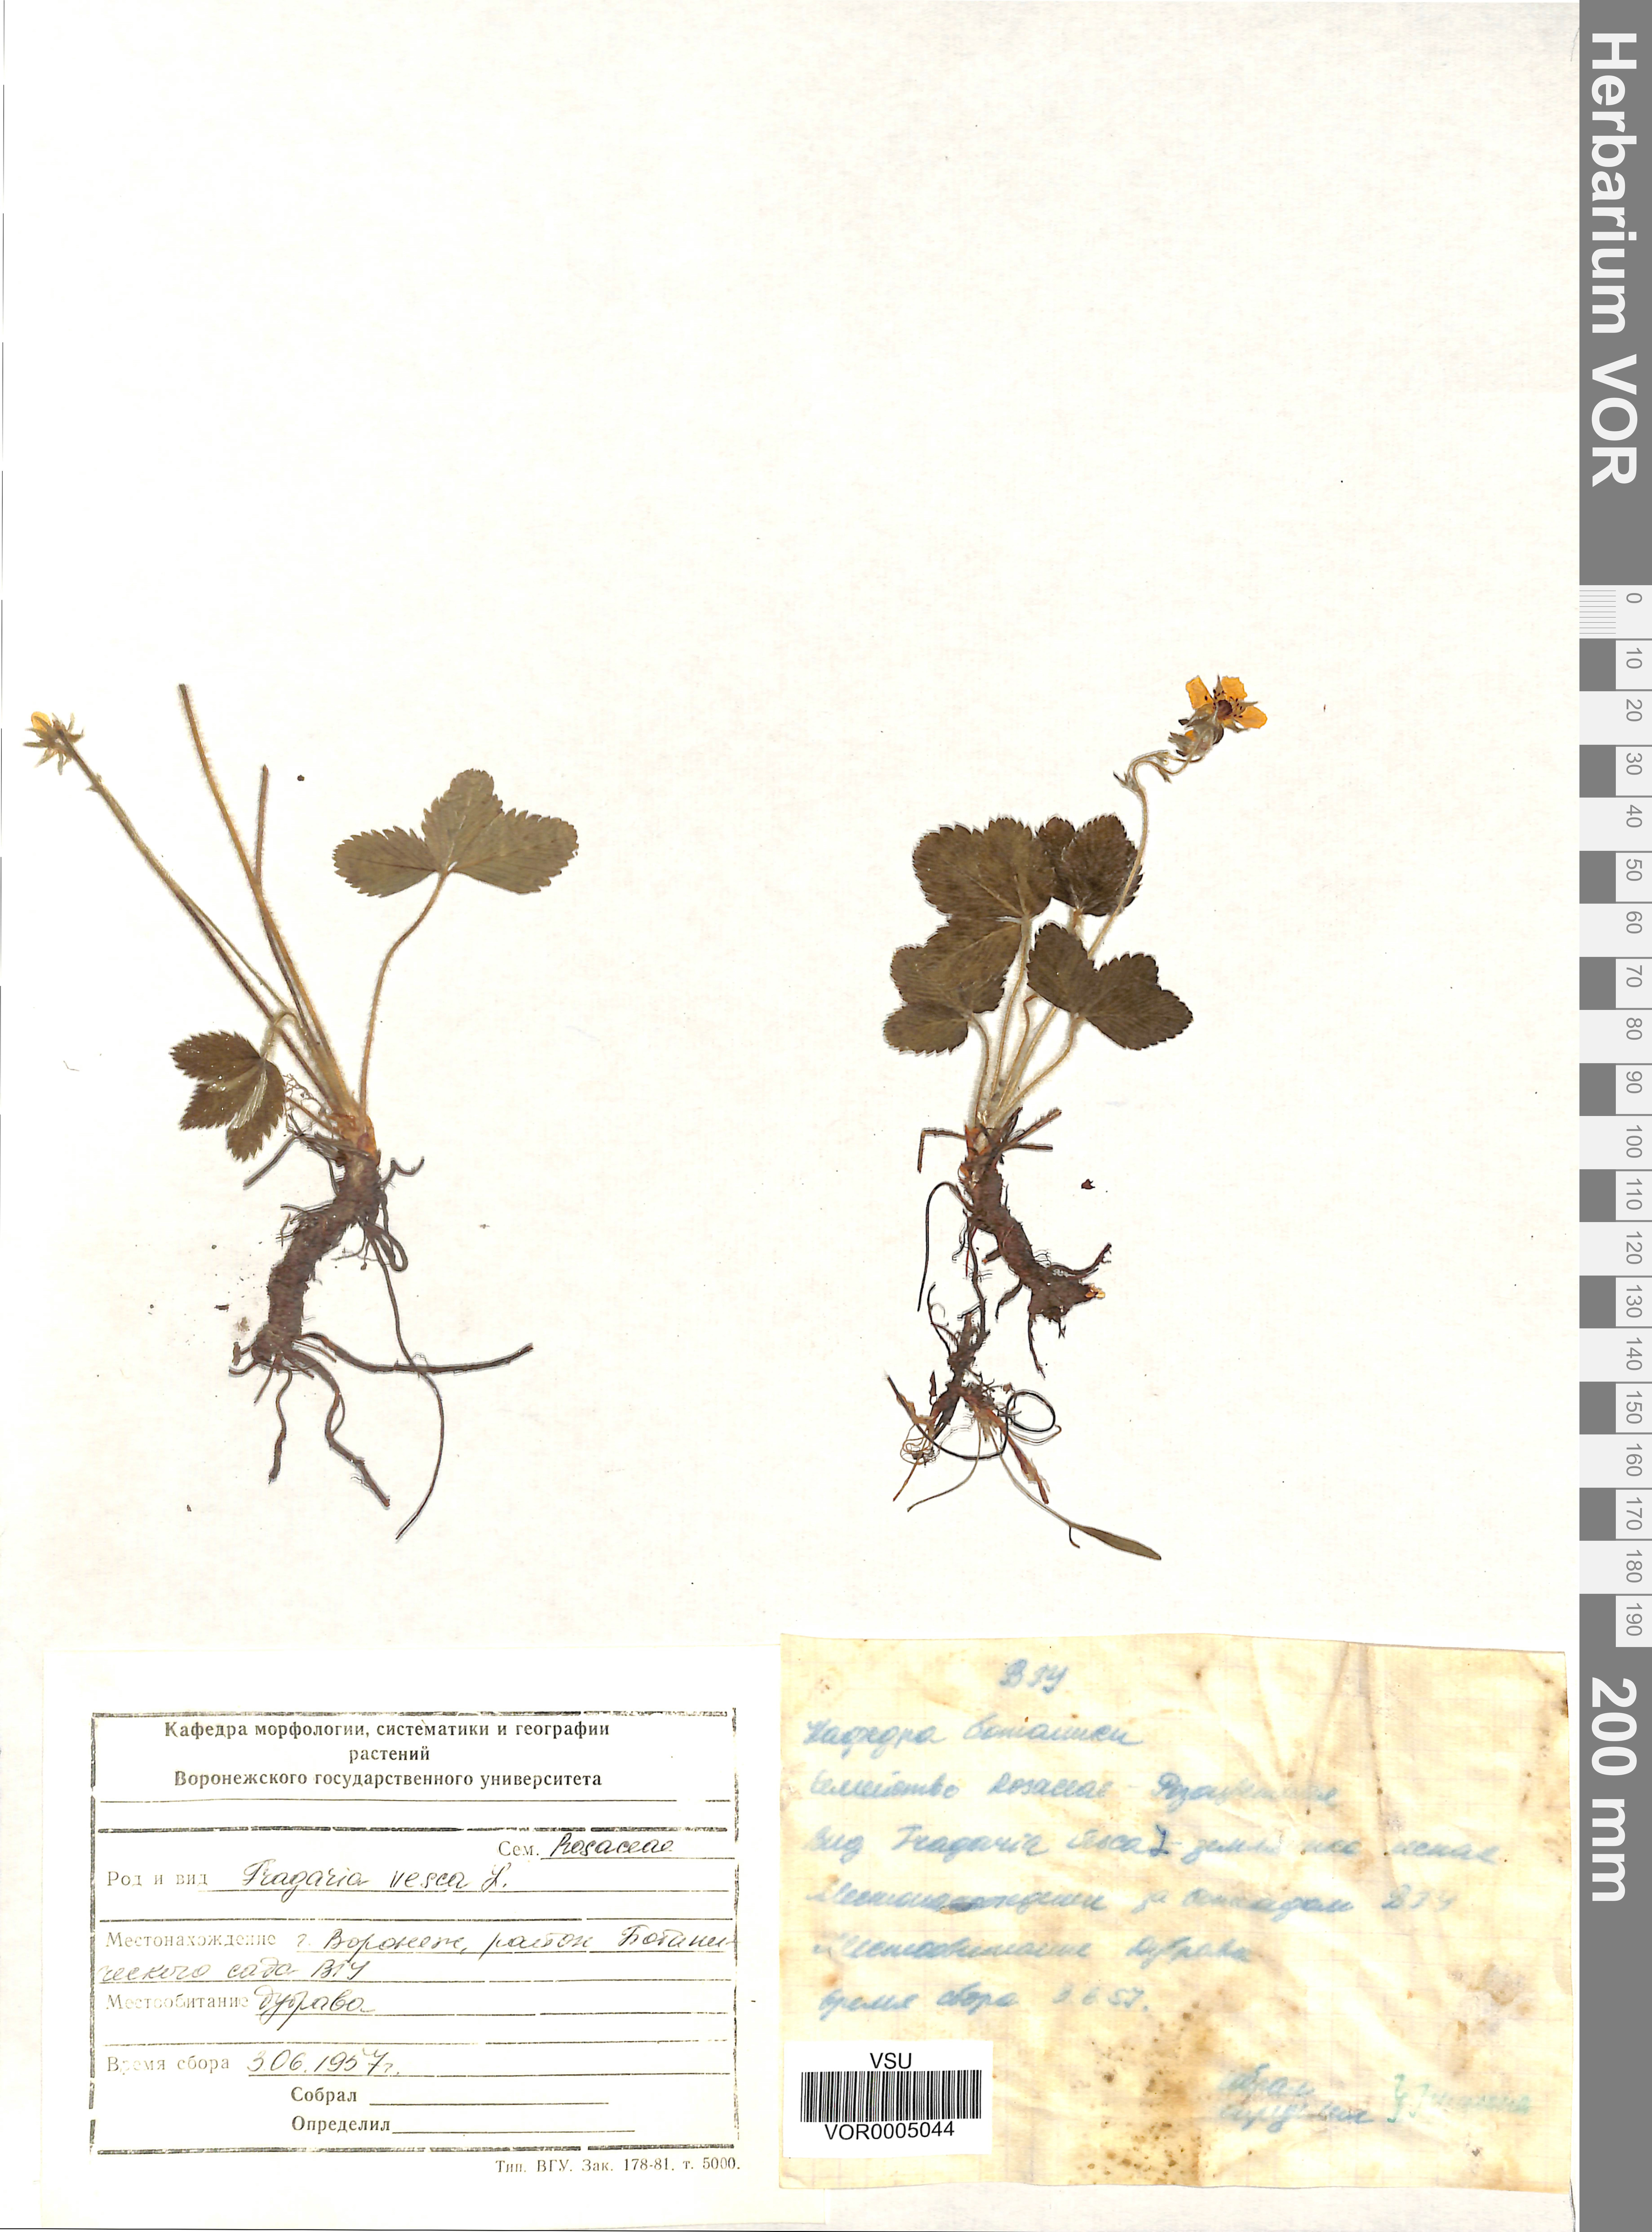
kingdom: Plantae
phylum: Tracheophyta
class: Magnoliopsida
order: Rosales
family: Rosaceae
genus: Fragaria
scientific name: Fragaria vesca
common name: Wild strawberry
